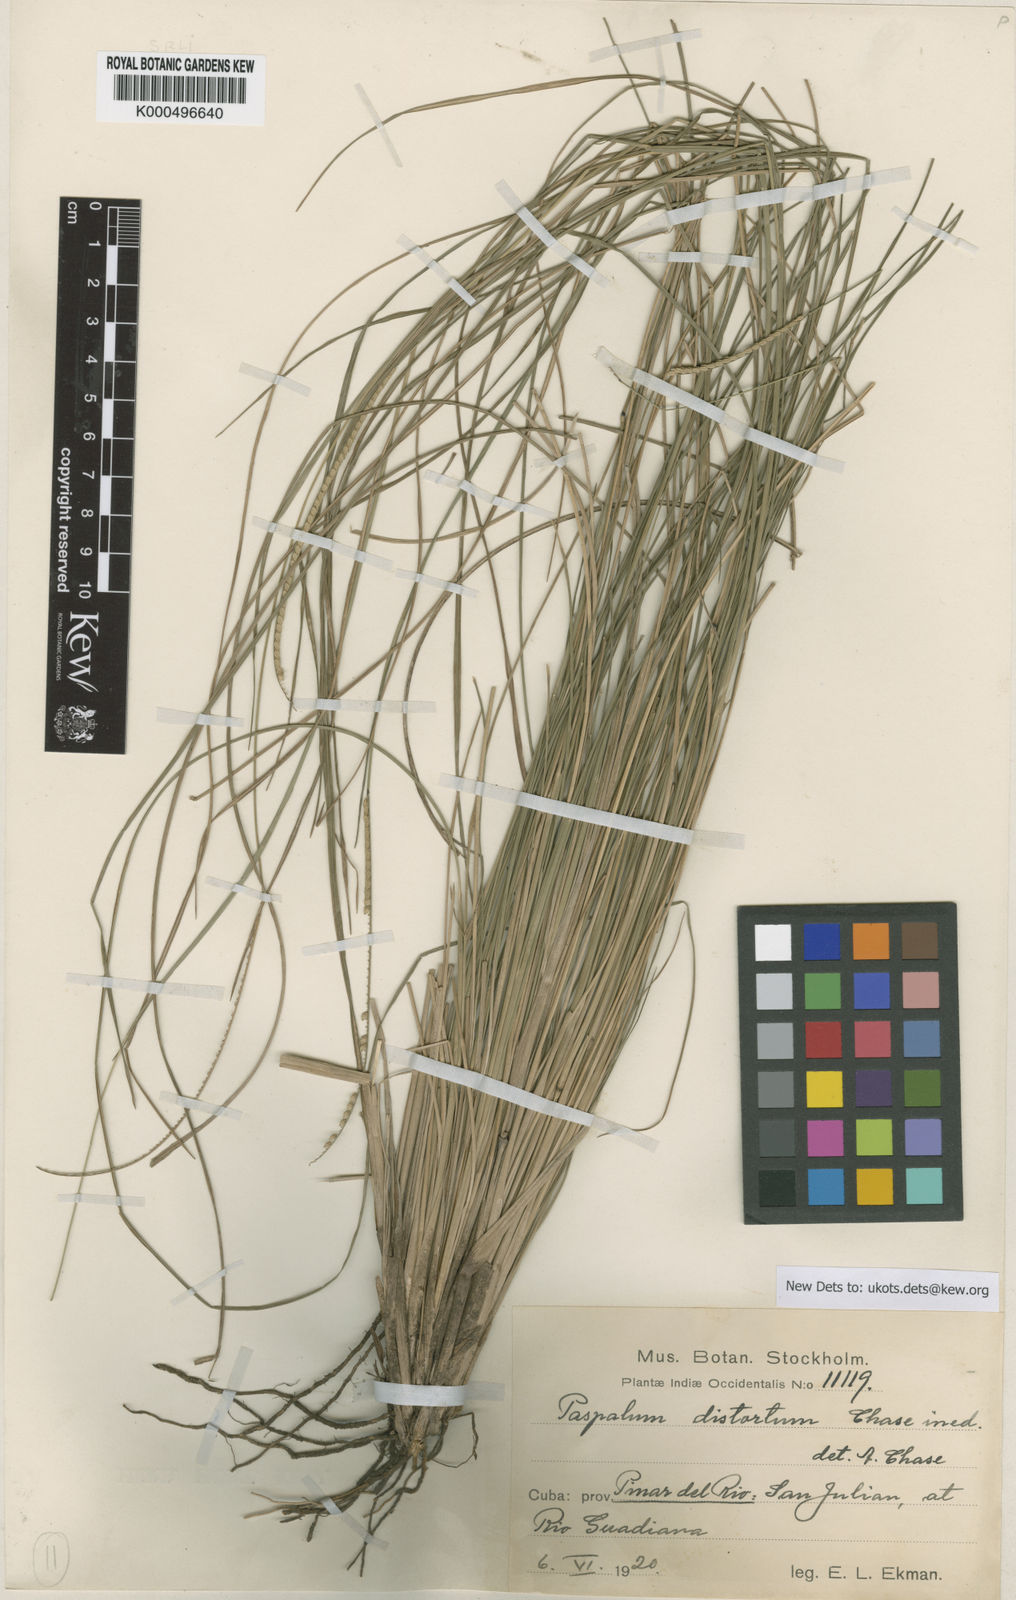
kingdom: Plantae
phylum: Tracheophyta
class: Liliopsida
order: Poales
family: Poaceae
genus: Paspalum
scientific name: Paspalum distortum
